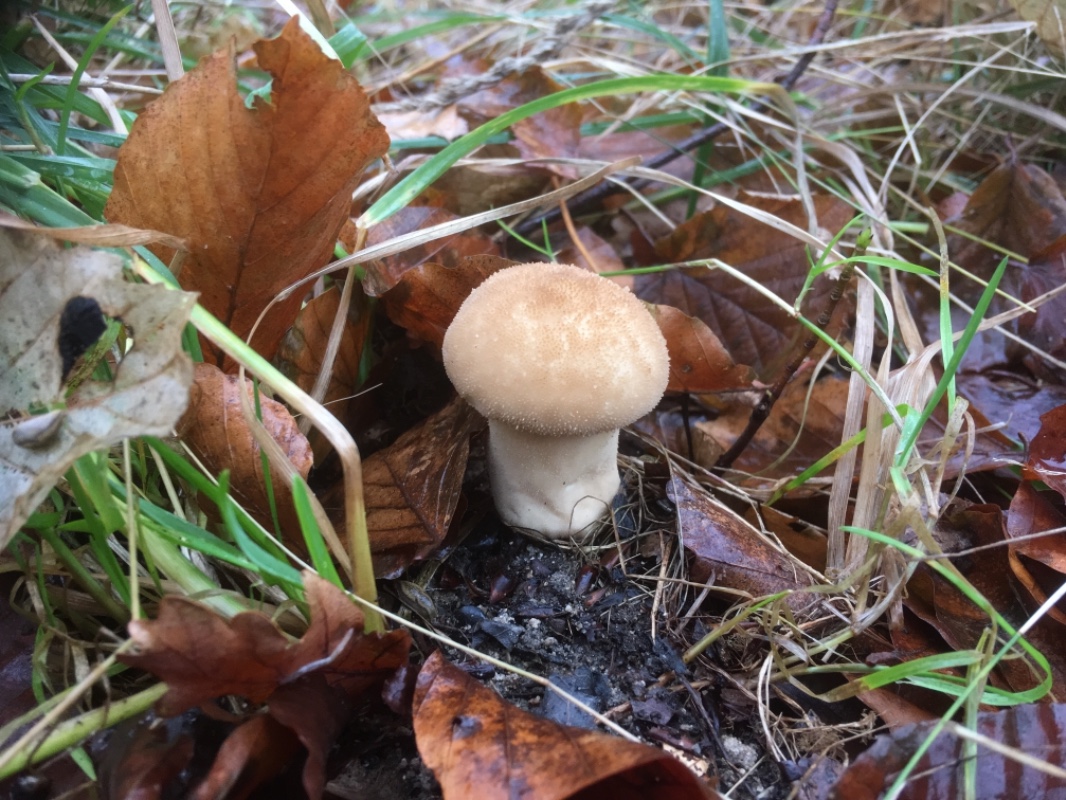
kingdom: Fungi
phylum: Basidiomycota
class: Agaricomycetes
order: Agaricales
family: Lycoperdaceae
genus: Lycoperdon
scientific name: Lycoperdon molle
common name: skov-støvbold
